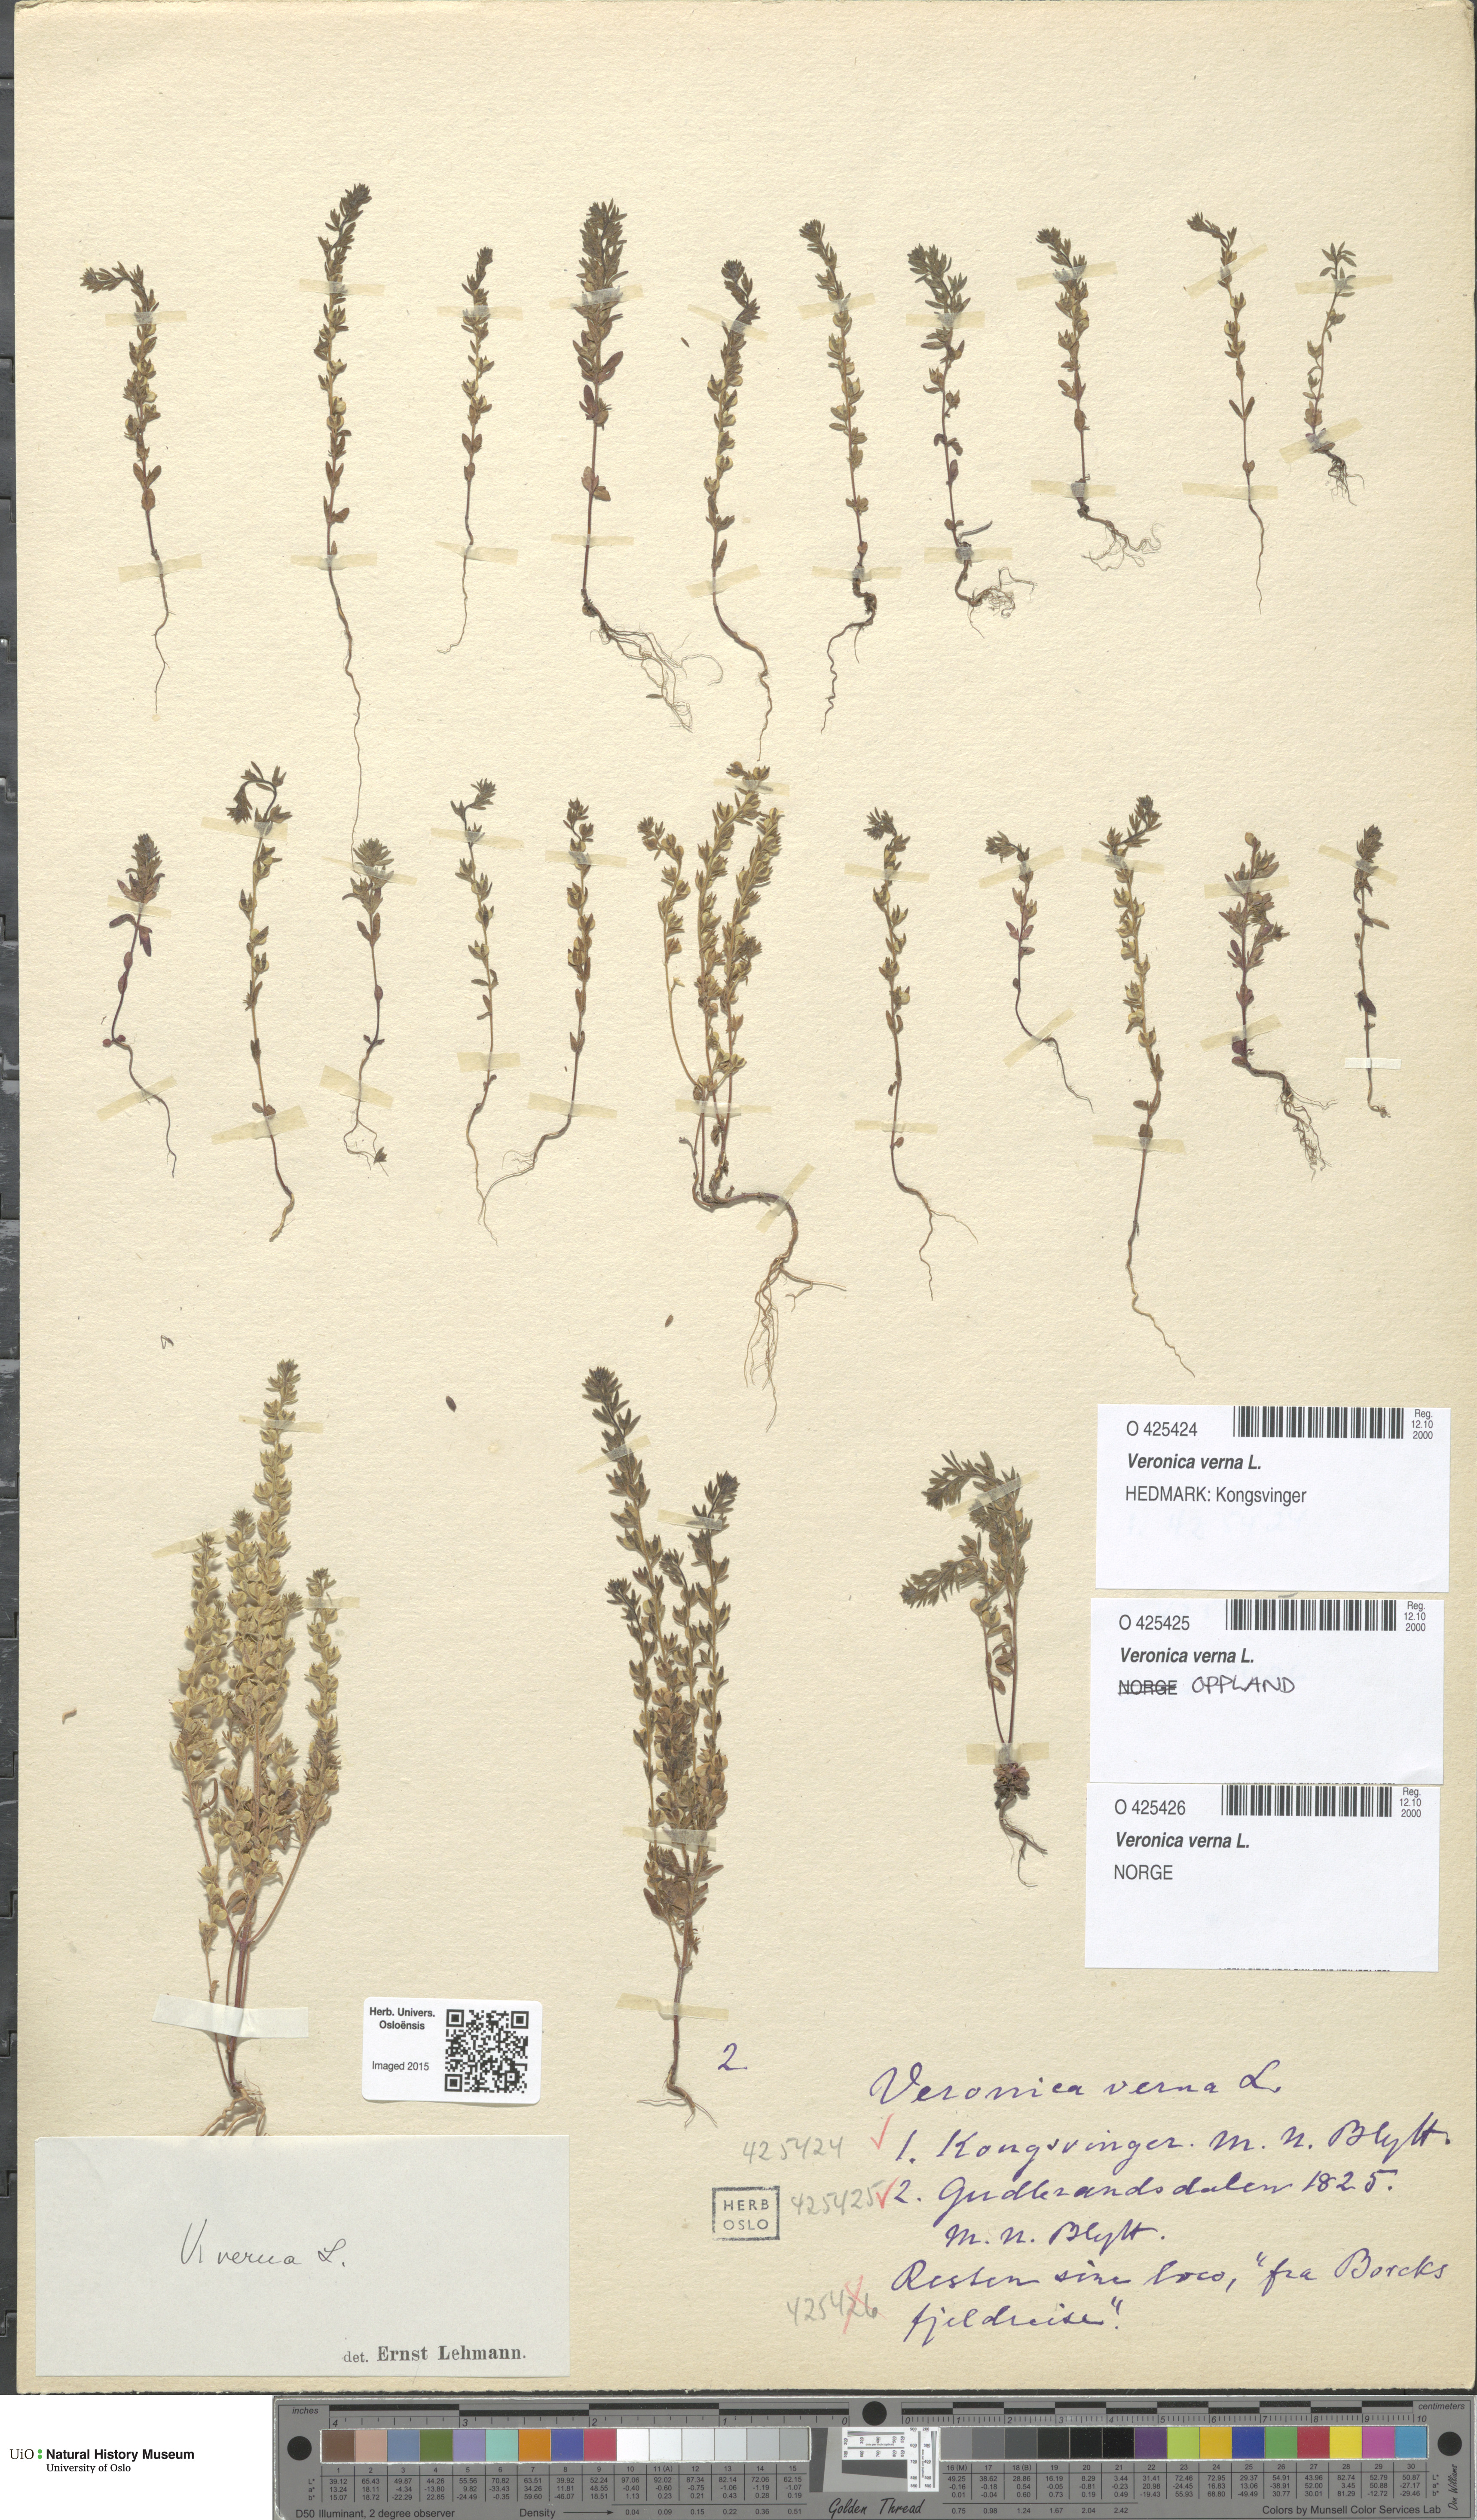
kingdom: Plantae
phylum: Tracheophyta
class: Magnoliopsida
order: Lamiales
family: Plantaginaceae
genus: Veronica
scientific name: Veronica verna
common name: Spring speedwell
